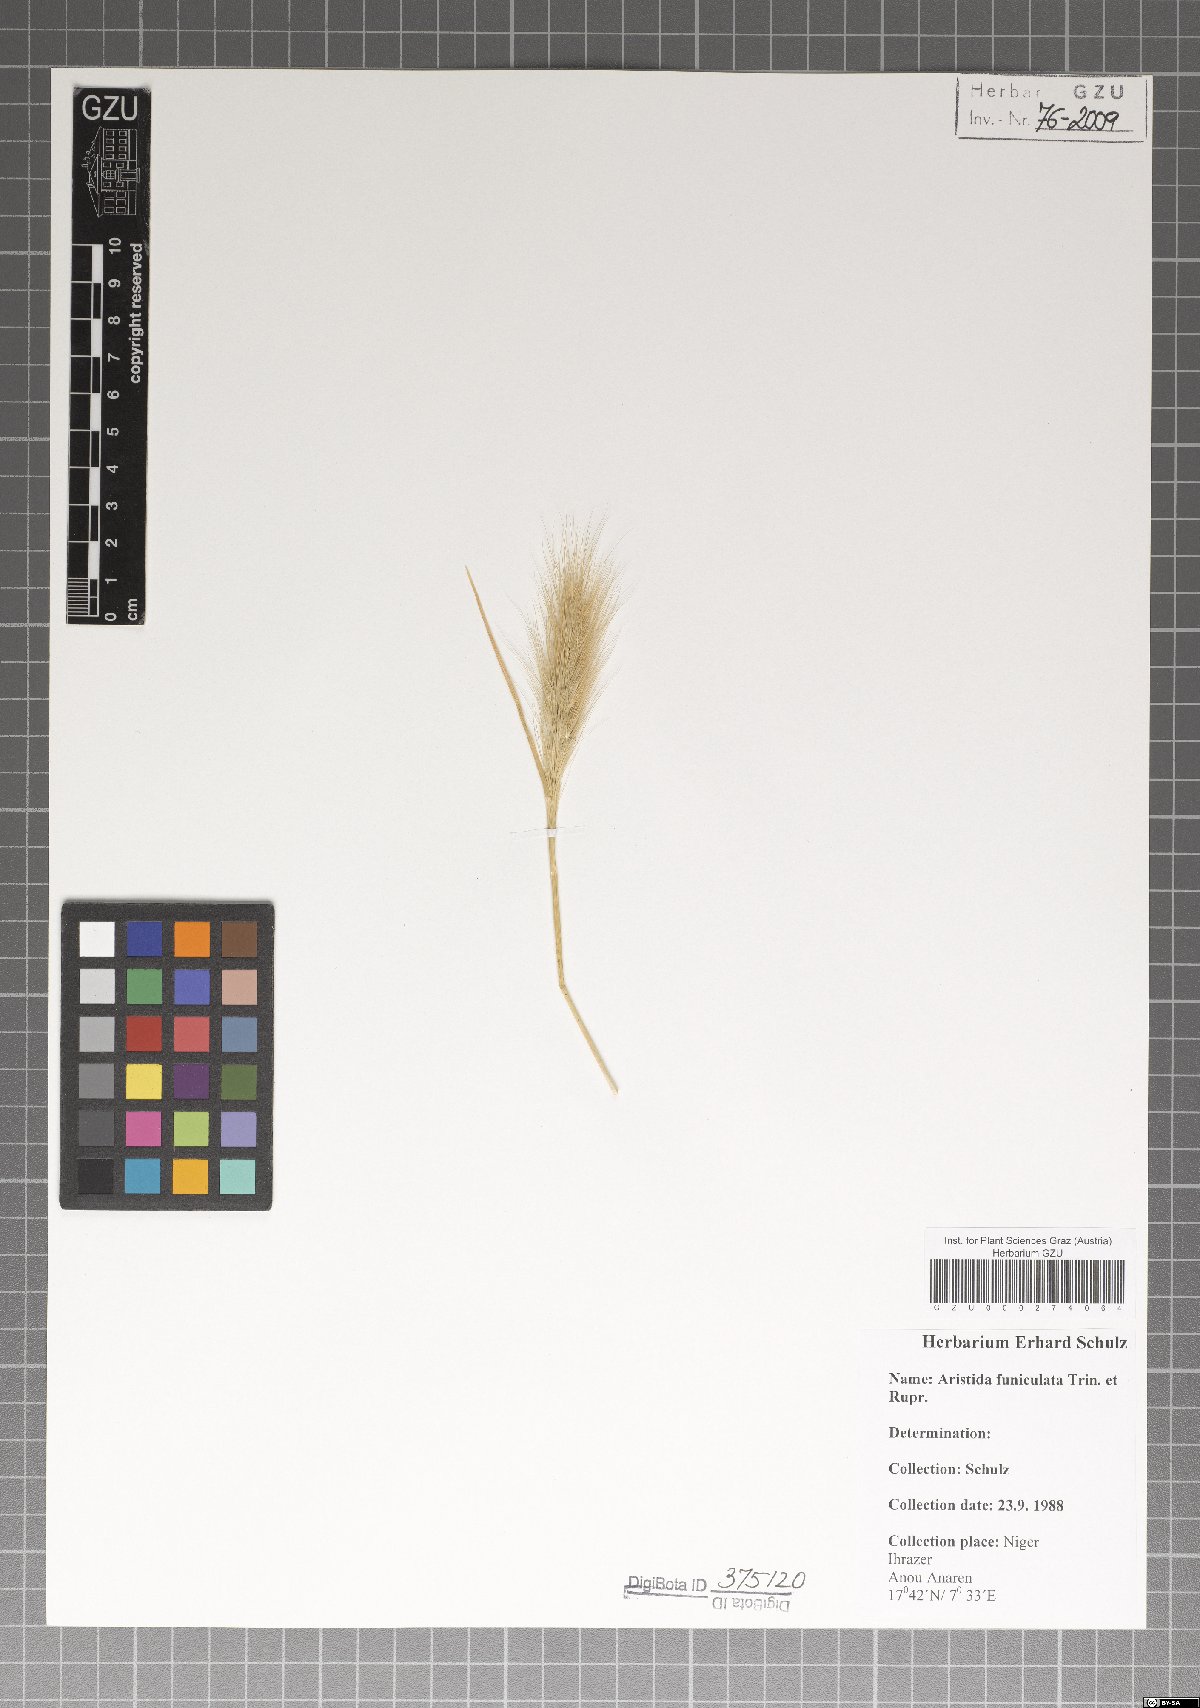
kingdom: Plantae
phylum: Tracheophyta
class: Liliopsida
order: Poales
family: Poaceae
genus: Aristida
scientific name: Aristida funiculata
